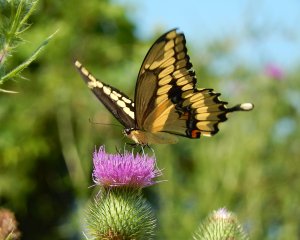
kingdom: Animalia
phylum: Arthropoda
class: Insecta
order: Lepidoptera
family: Papilionidae
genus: Papilio
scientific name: Papilio cresphontes
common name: Eastern Giant Swallowtail
